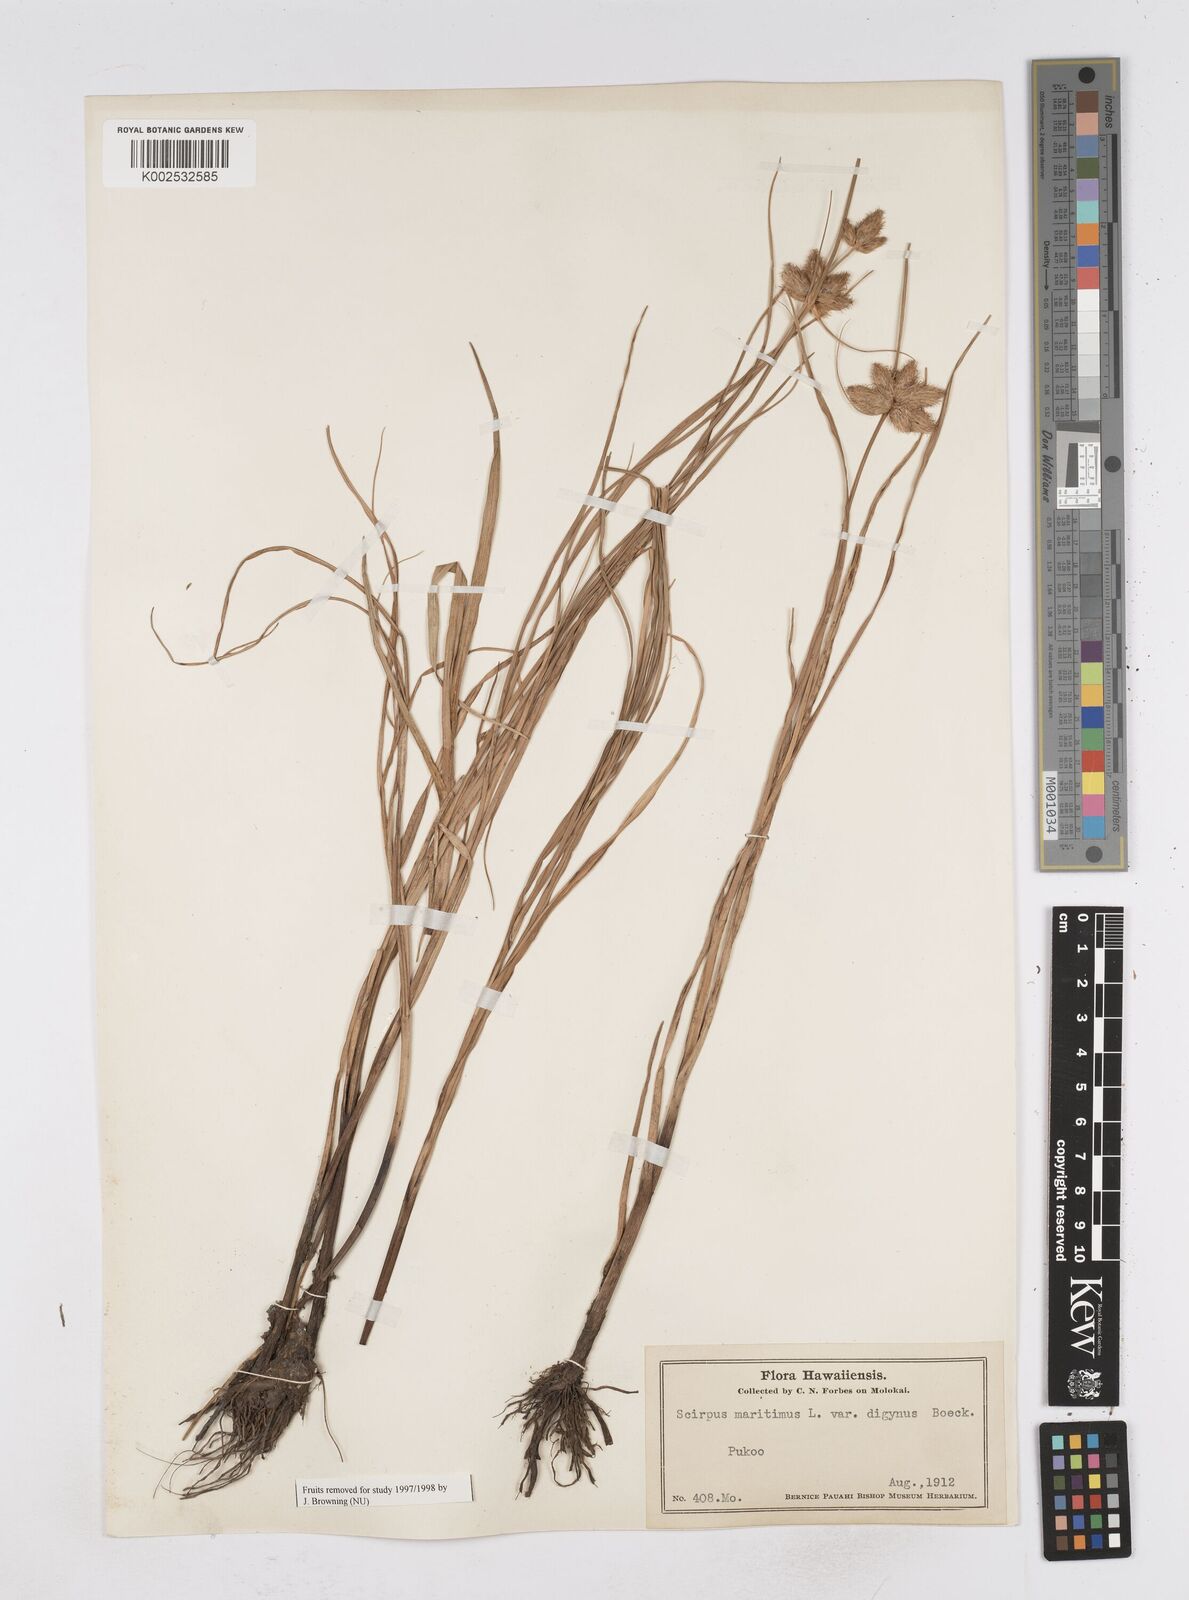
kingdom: Plantae
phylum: Tracheophyta
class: Liliopsida
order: Poales
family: Cyperaceae
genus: Bolboschoenus
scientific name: Bolboschoenus maritimus
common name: Sea club-rush
